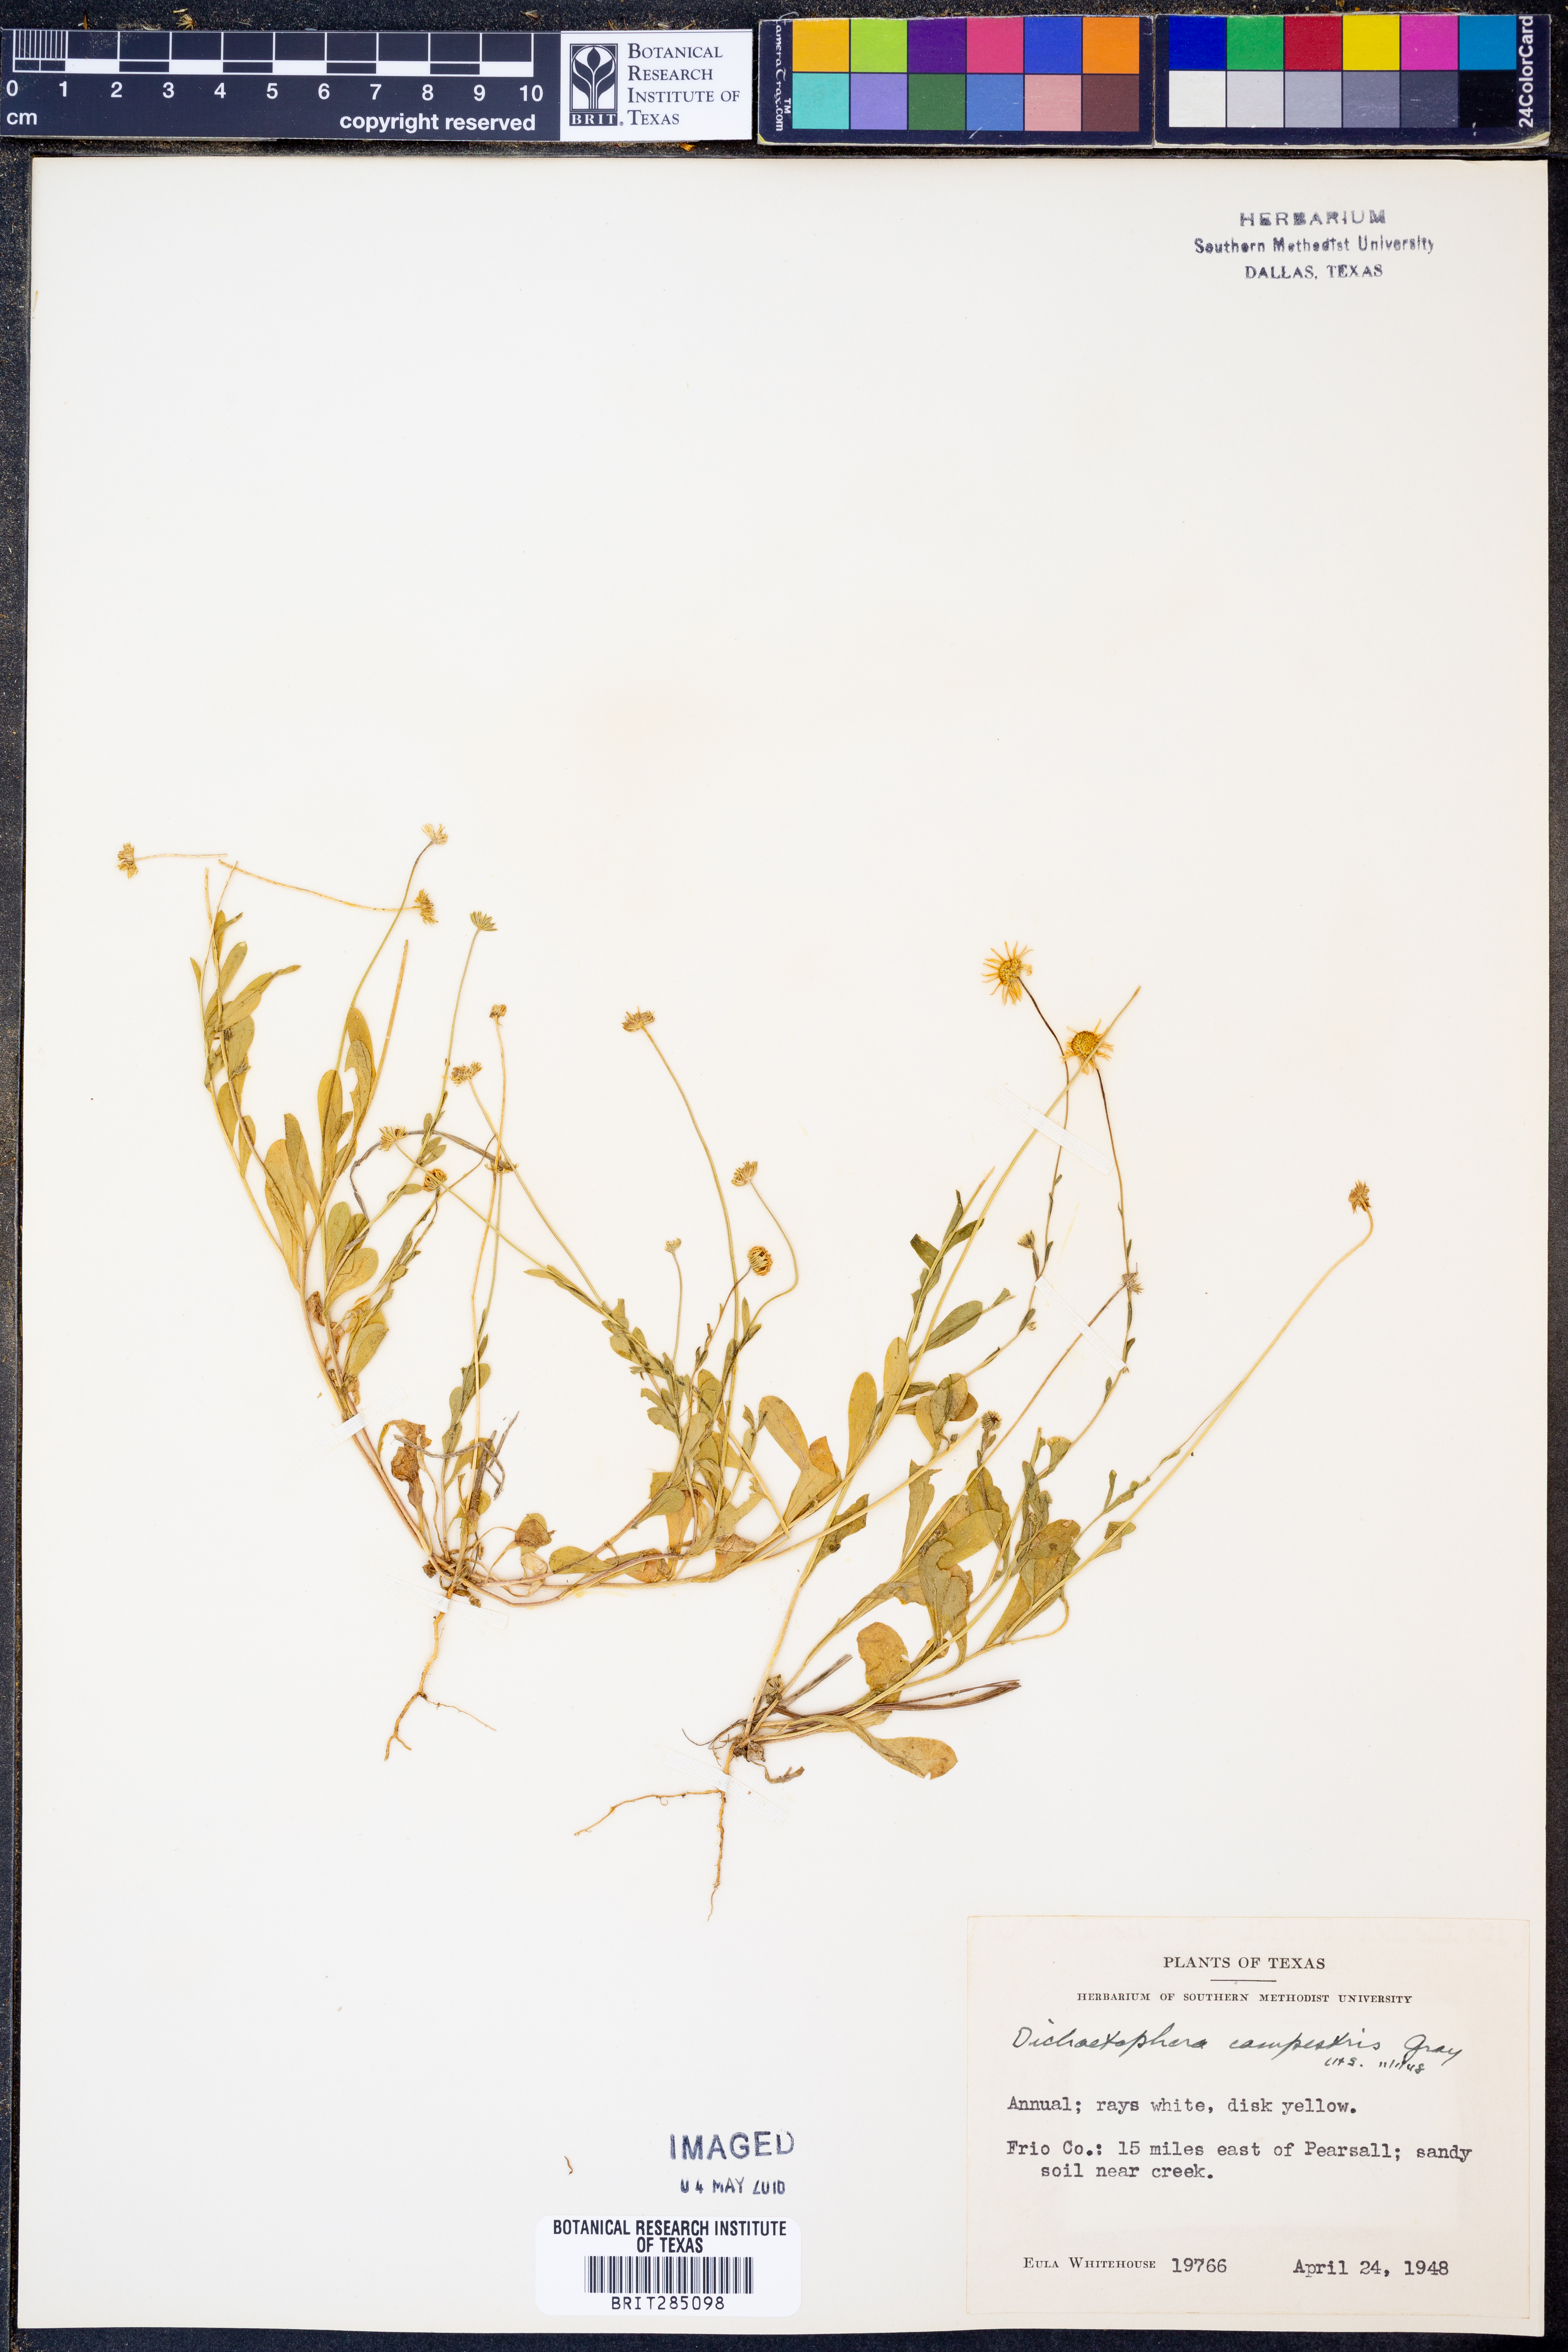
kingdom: Plantae
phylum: Tracheophyta
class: Magnoliopsida
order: Asterales
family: Asteraceae
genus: Dichaetophora
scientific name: Dichaetophora campestris
